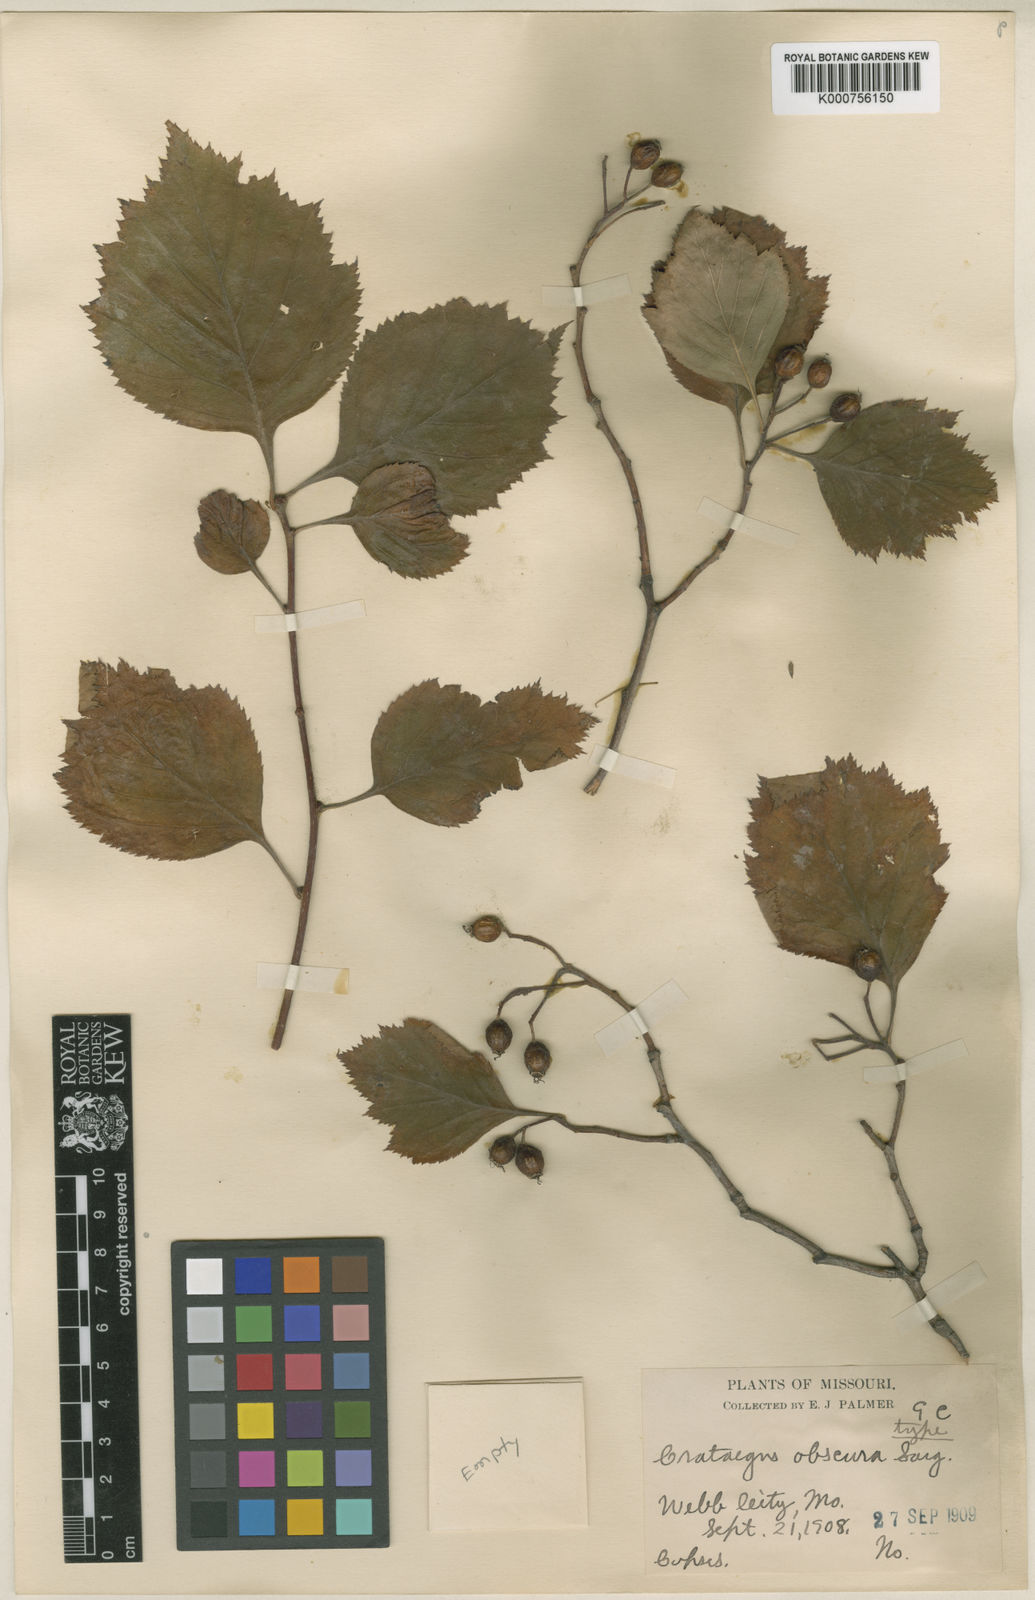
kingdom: Plantae
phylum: Tracheophyta
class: Magnoliopsida
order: Rosales
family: Rosaceae
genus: Crataegus
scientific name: Crataegus obscura
